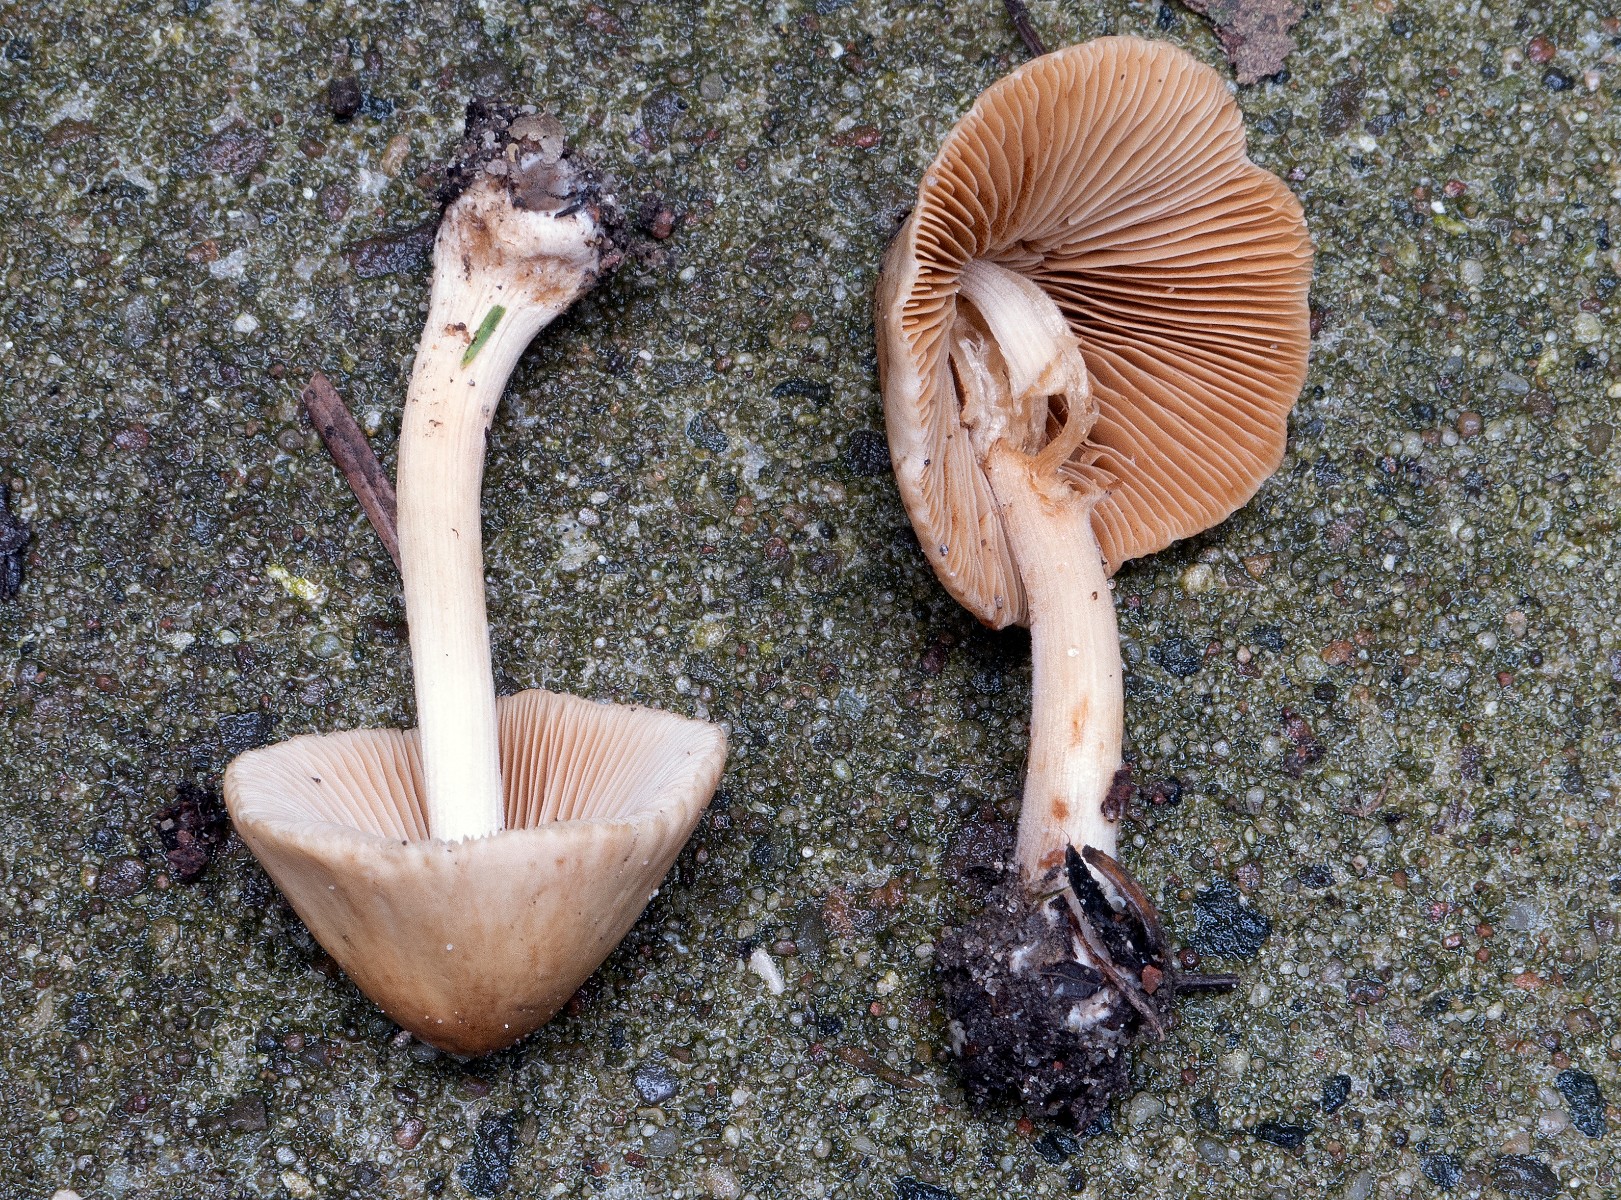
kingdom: Fungi
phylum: Basidiomycota
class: Agaricomycetes
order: Agaricales
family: Bolbitiaceae
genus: Conocybe
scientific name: Conocybe inocybeoides
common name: knold-keglehat
